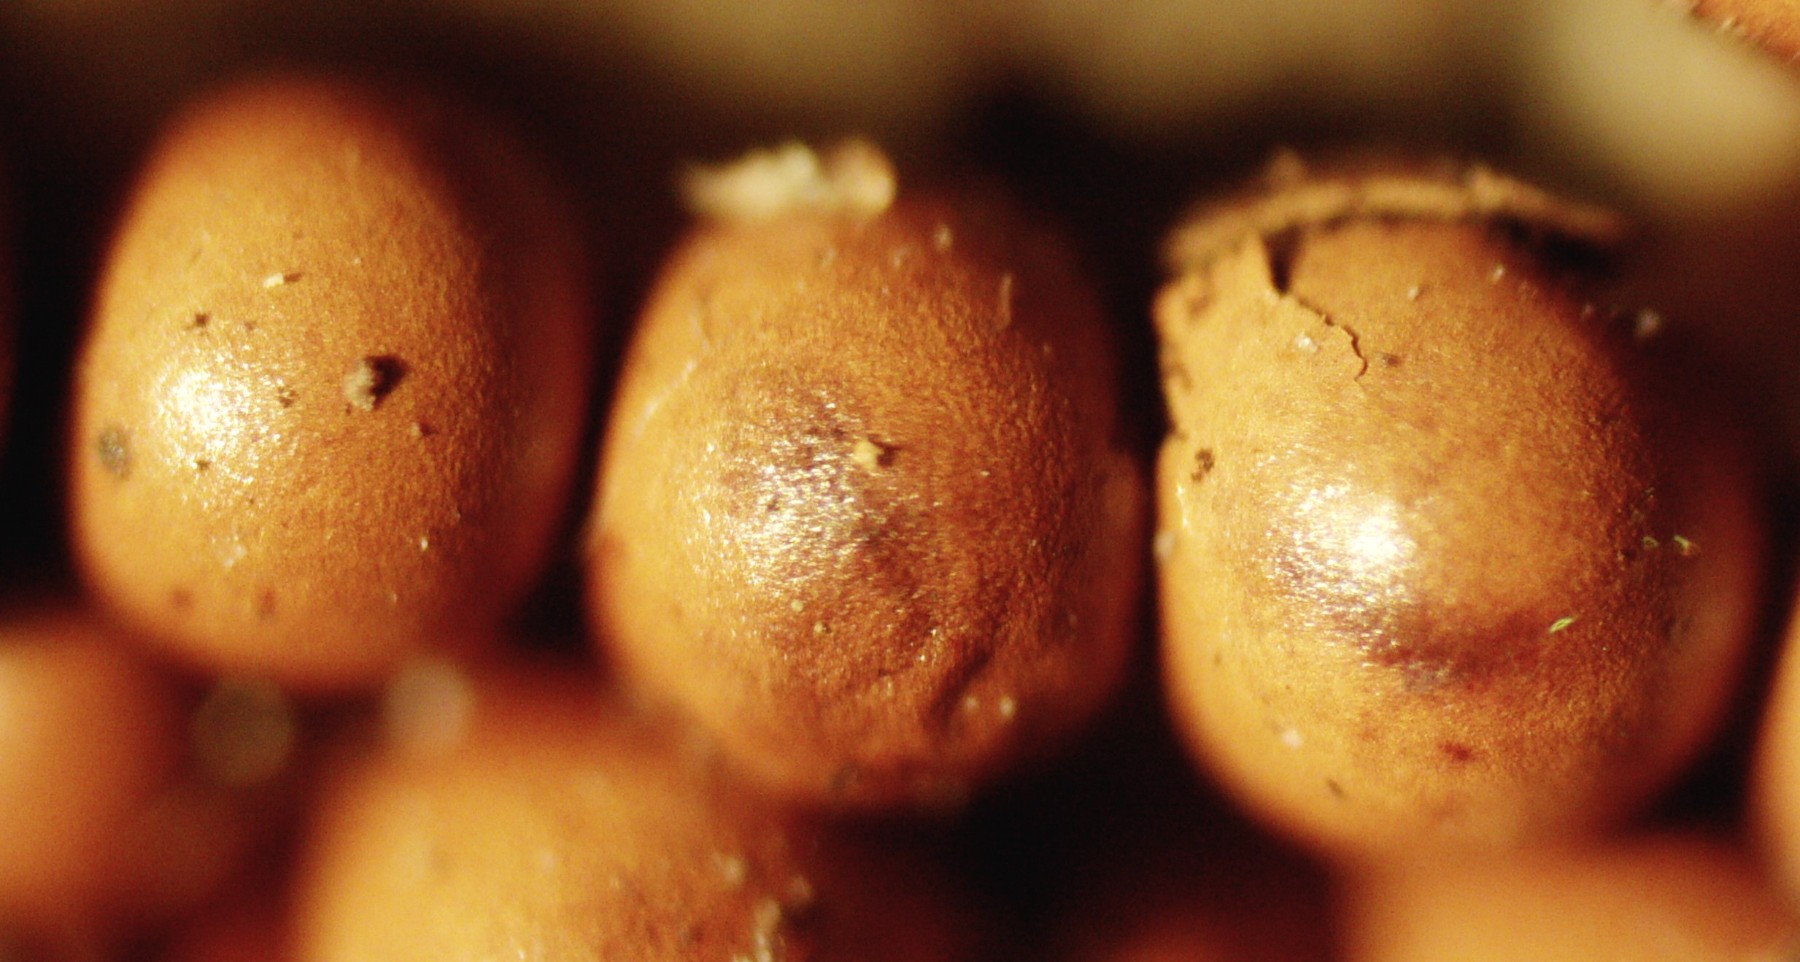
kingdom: Protozoa
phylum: Mycetozoa
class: Myxomycetes
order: Physarales
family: Physaraceae
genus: Leocarpus
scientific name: Leocarpus fragilis
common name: poleret glatfrø
